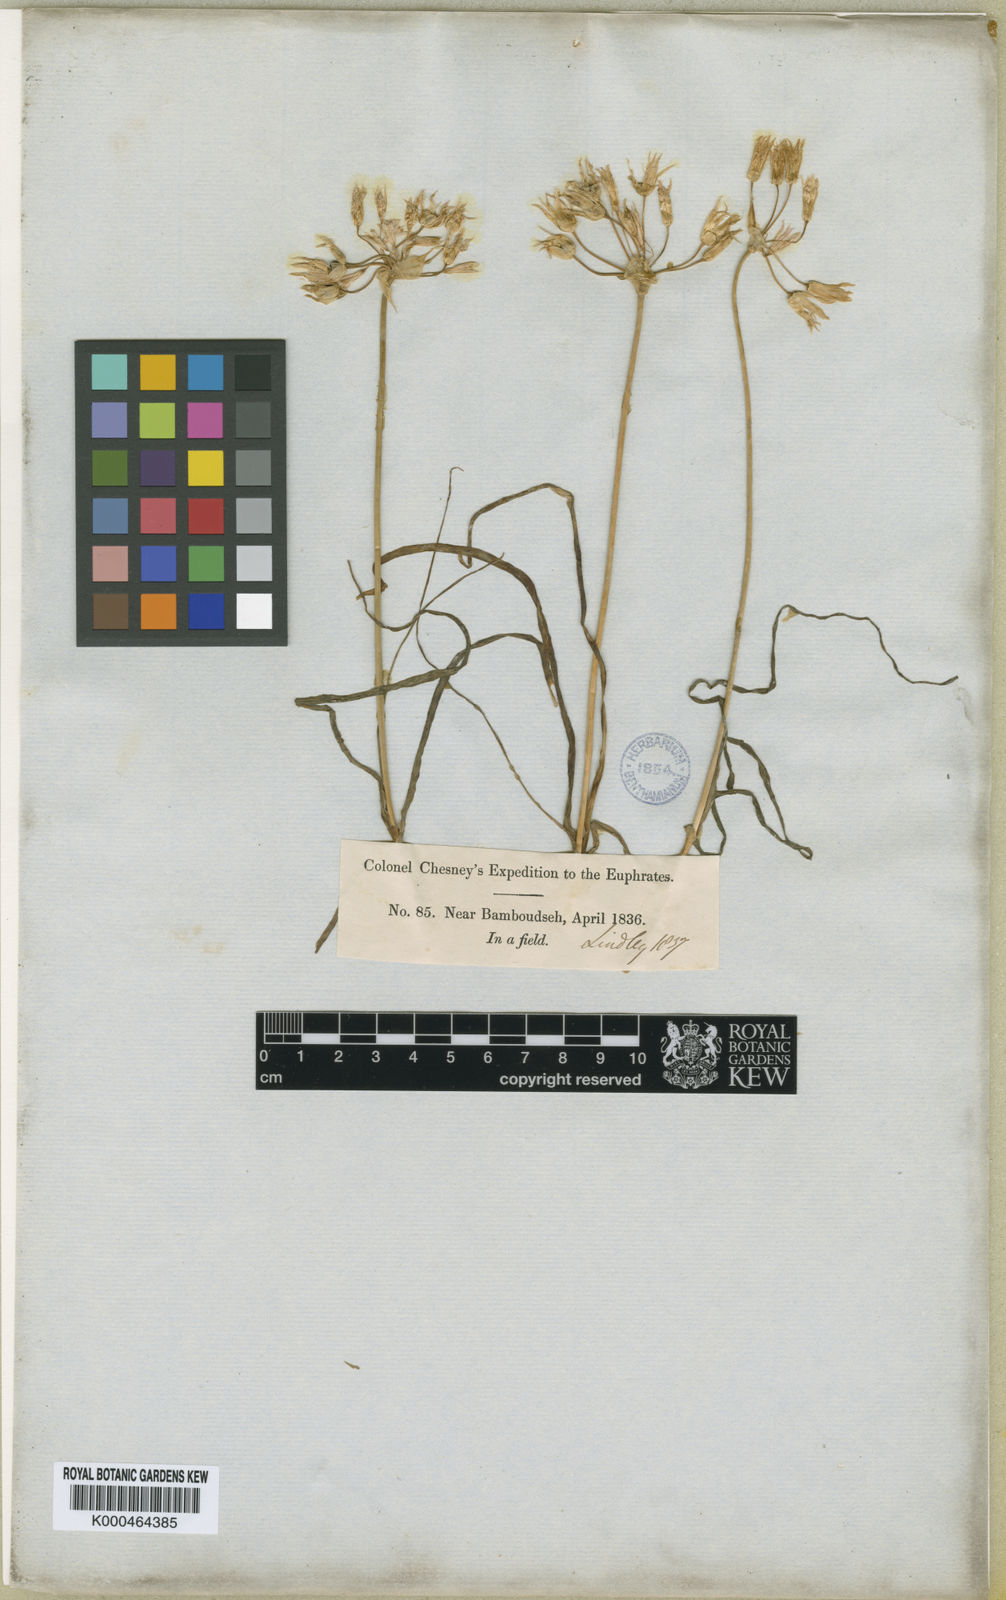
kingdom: Plantae
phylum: Tracheophyta
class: Liliopsida
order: Asparagales
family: Amaryllidaceae
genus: Allium
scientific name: Allium longisepalum
